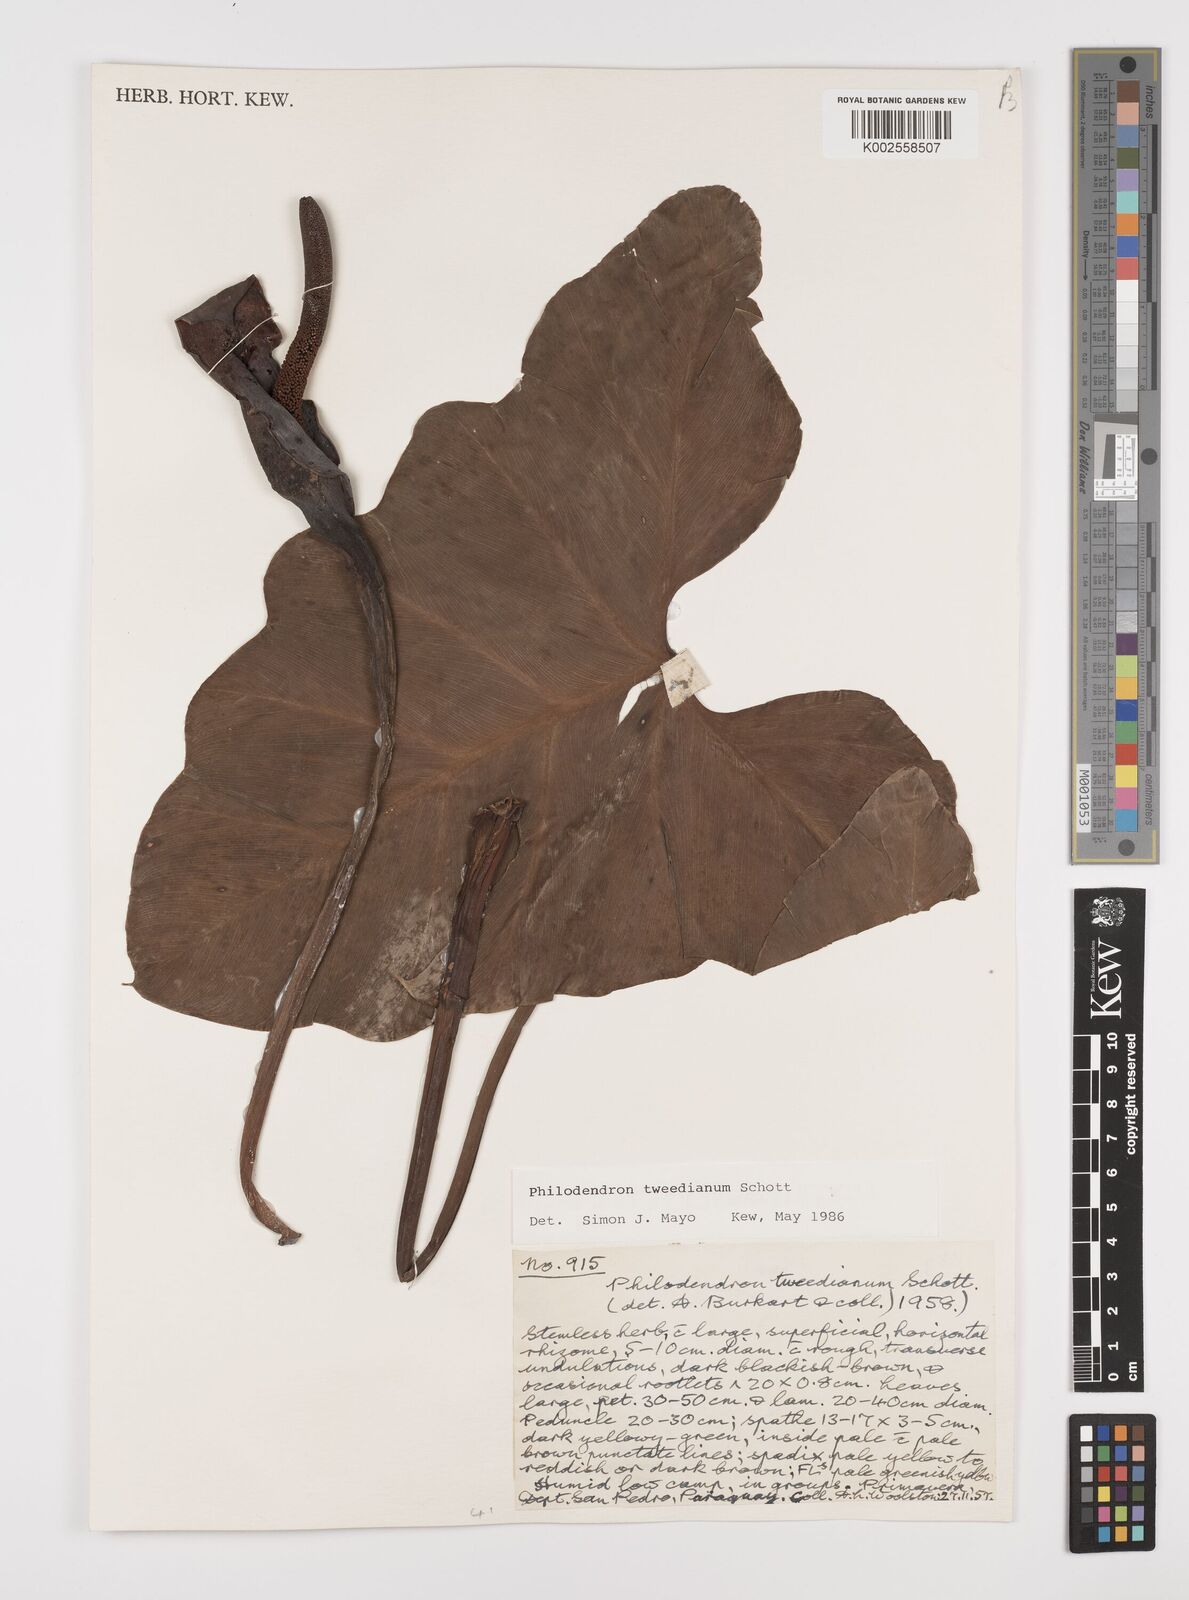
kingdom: Plantae
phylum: Tracheophyta
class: Liliopsida
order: Alismatales
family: Araceae
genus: Thaumatophyllum
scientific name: Thaumatophyllum tweedieanum
